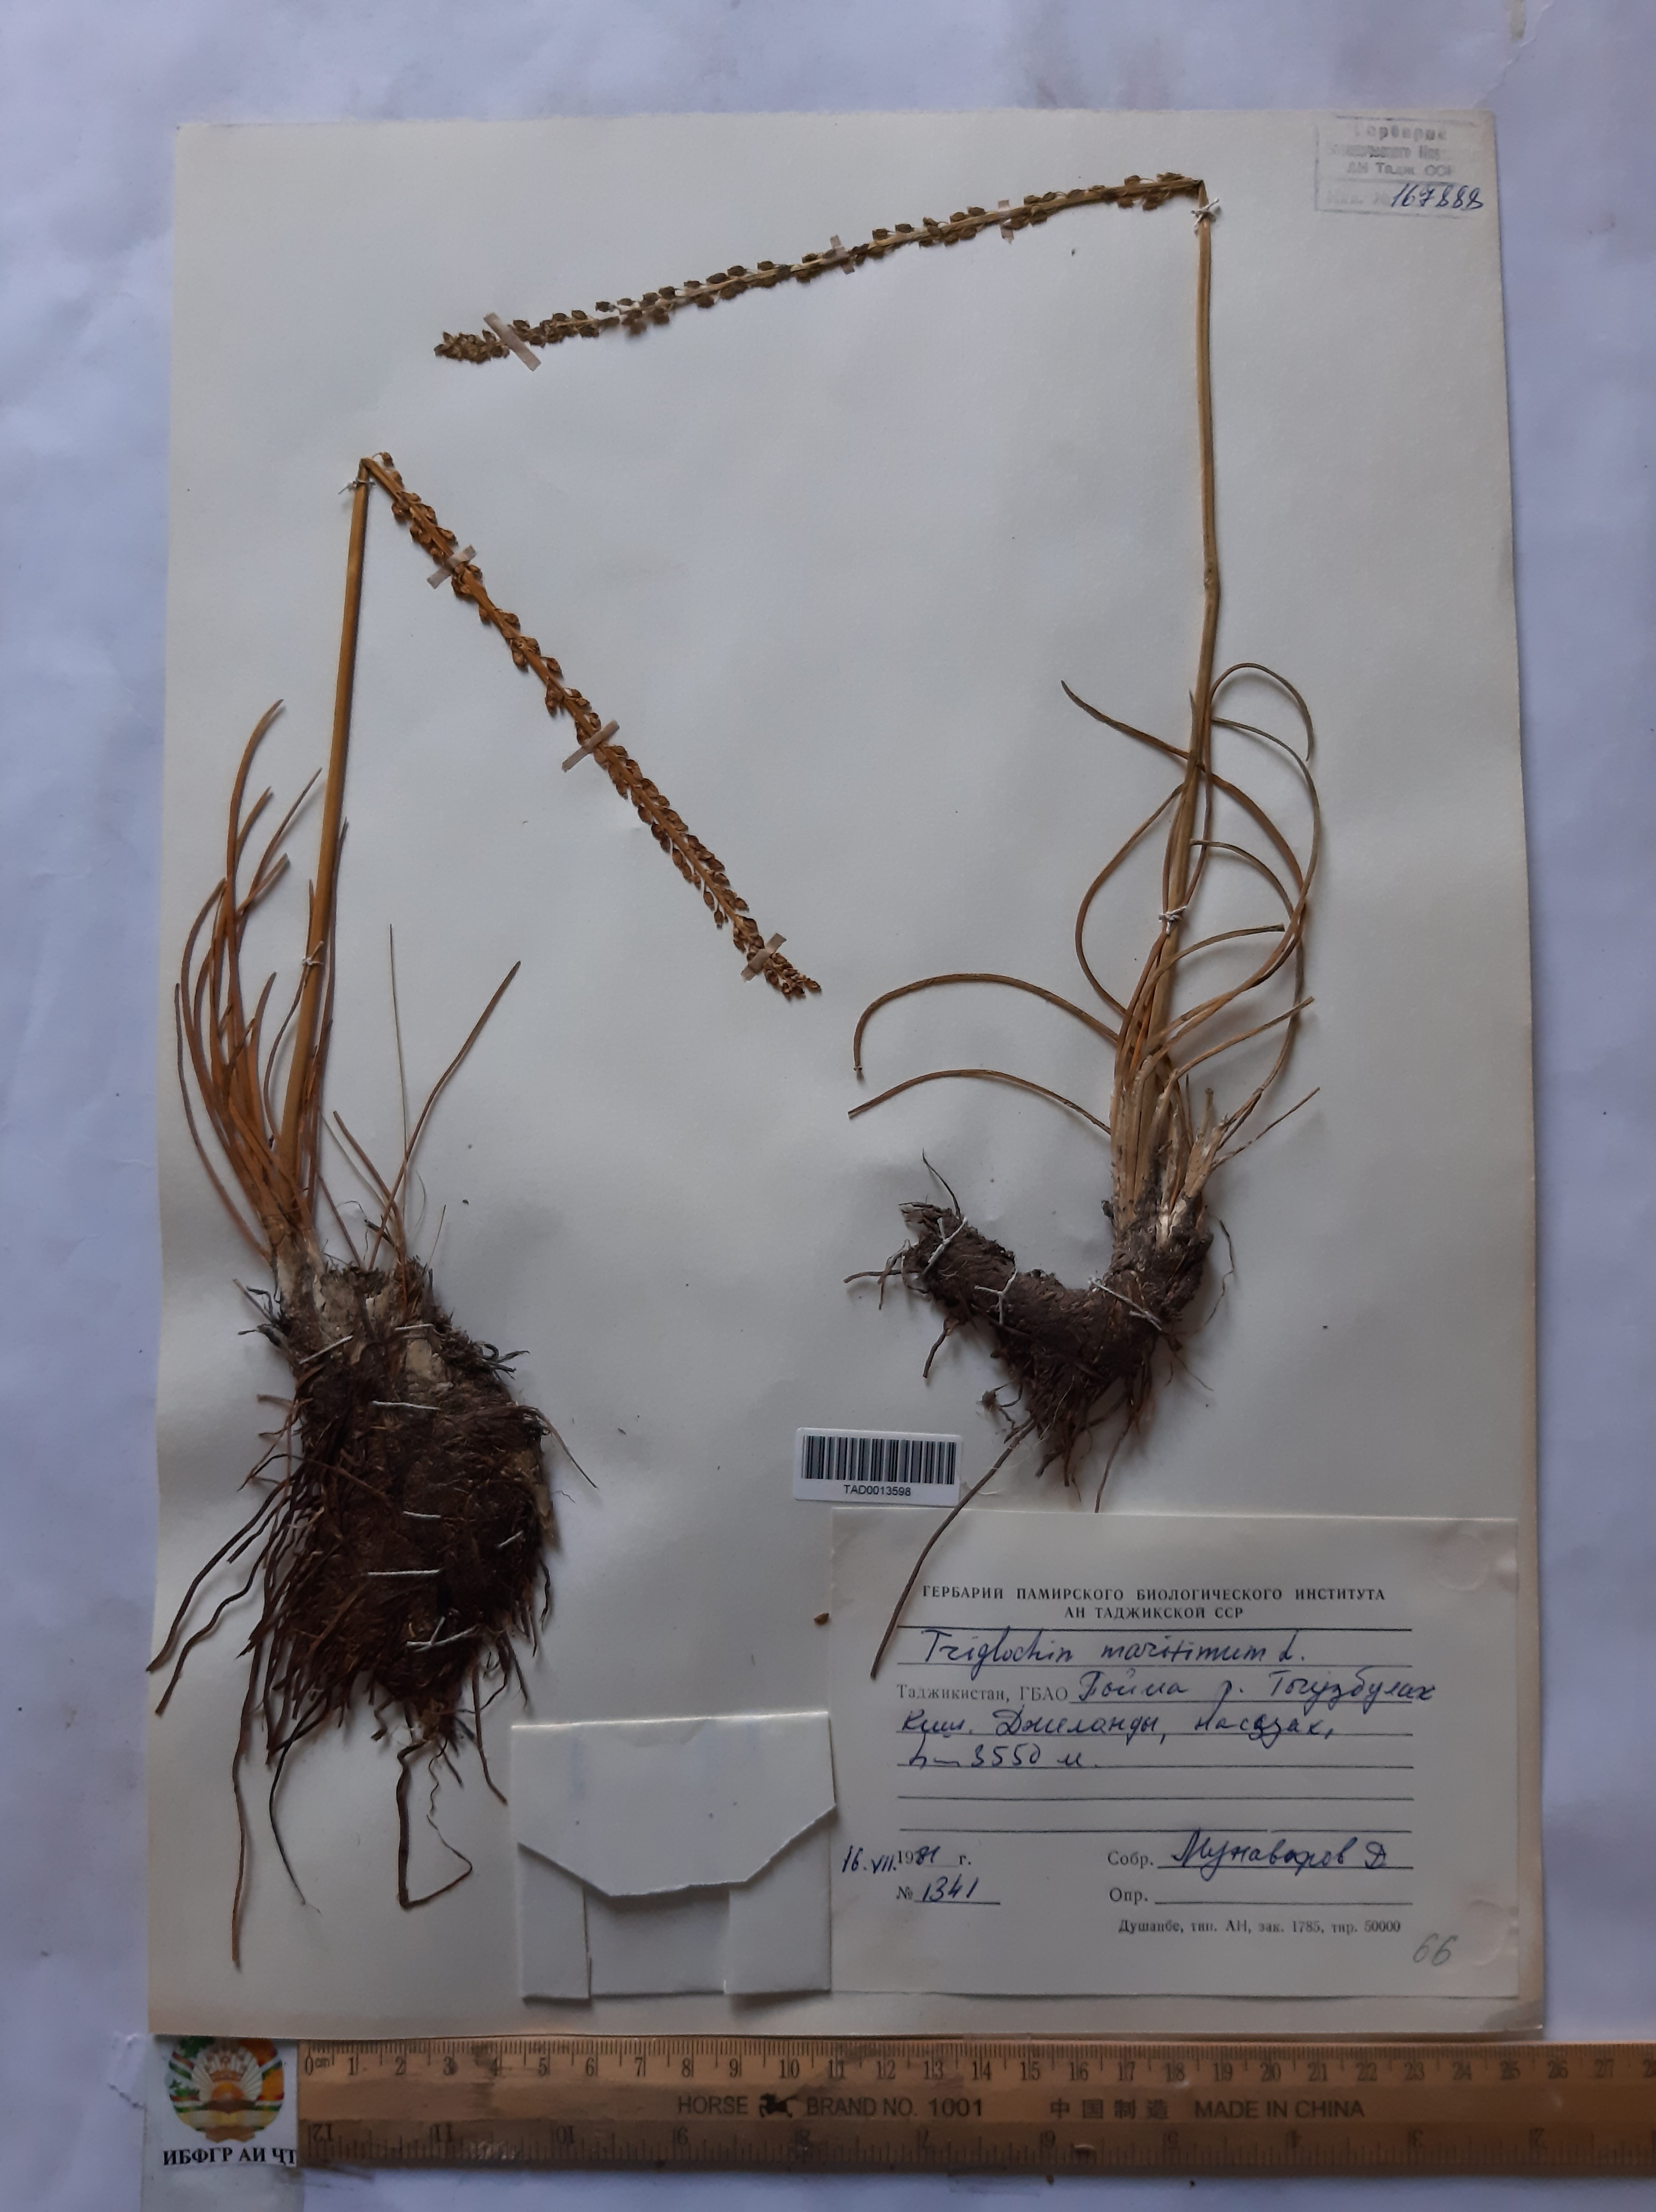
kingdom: Plantae
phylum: Tracheophyta
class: Liliopsida
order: Alismatales
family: Juncaginaceae
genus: Triglochin
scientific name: Triglochin maritima
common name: Sea arrowgrass
